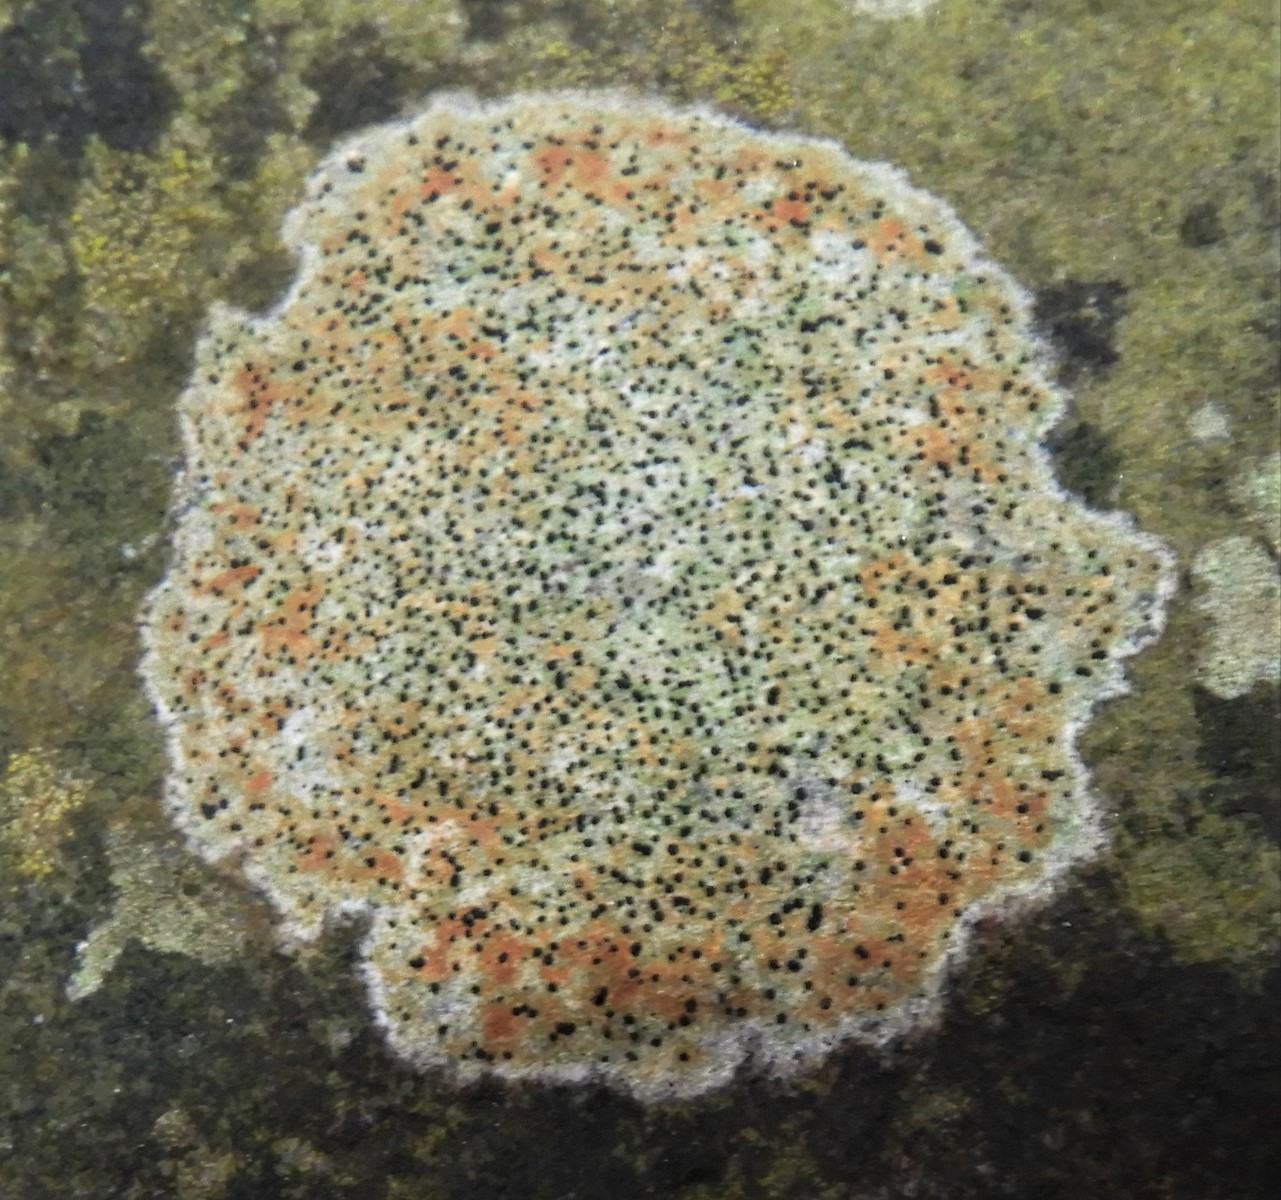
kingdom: Fungi
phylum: Ascomycota
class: Lecanoromycetes
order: Lecideales
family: Lecideaceae
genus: Porpidia
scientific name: Porpidia
